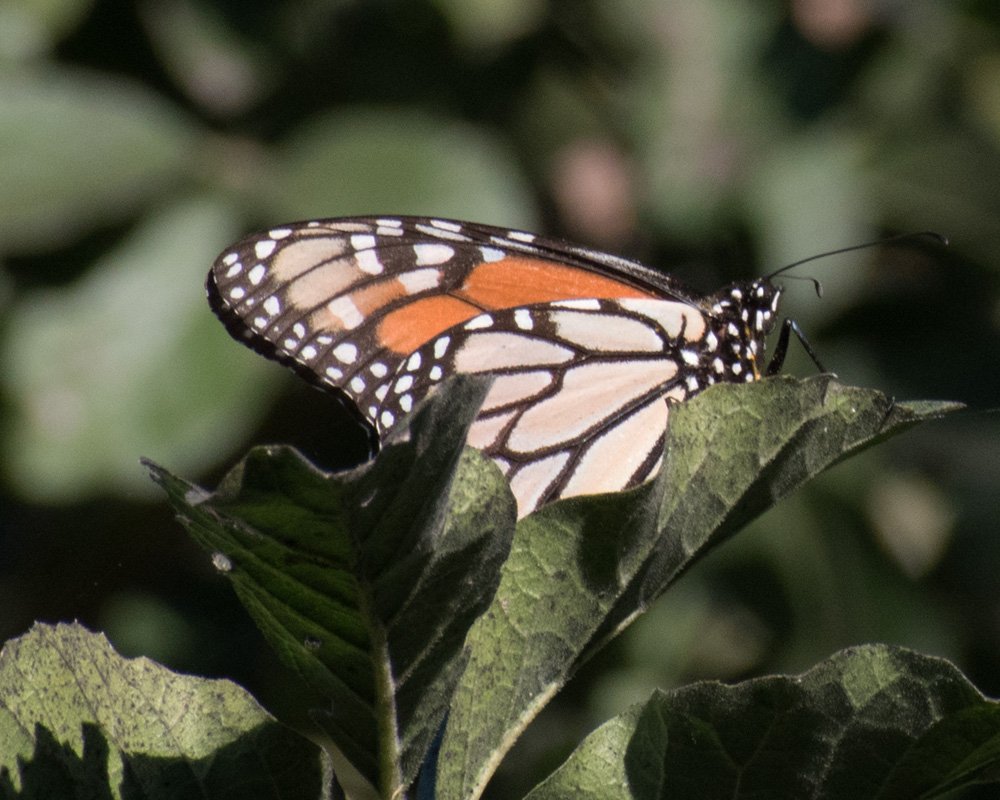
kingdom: Animalia
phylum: Arthropoda
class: Insecta
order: Lepidoptera
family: Nymphalidae
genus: Danaus
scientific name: Danaus plexippus
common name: Monarch
